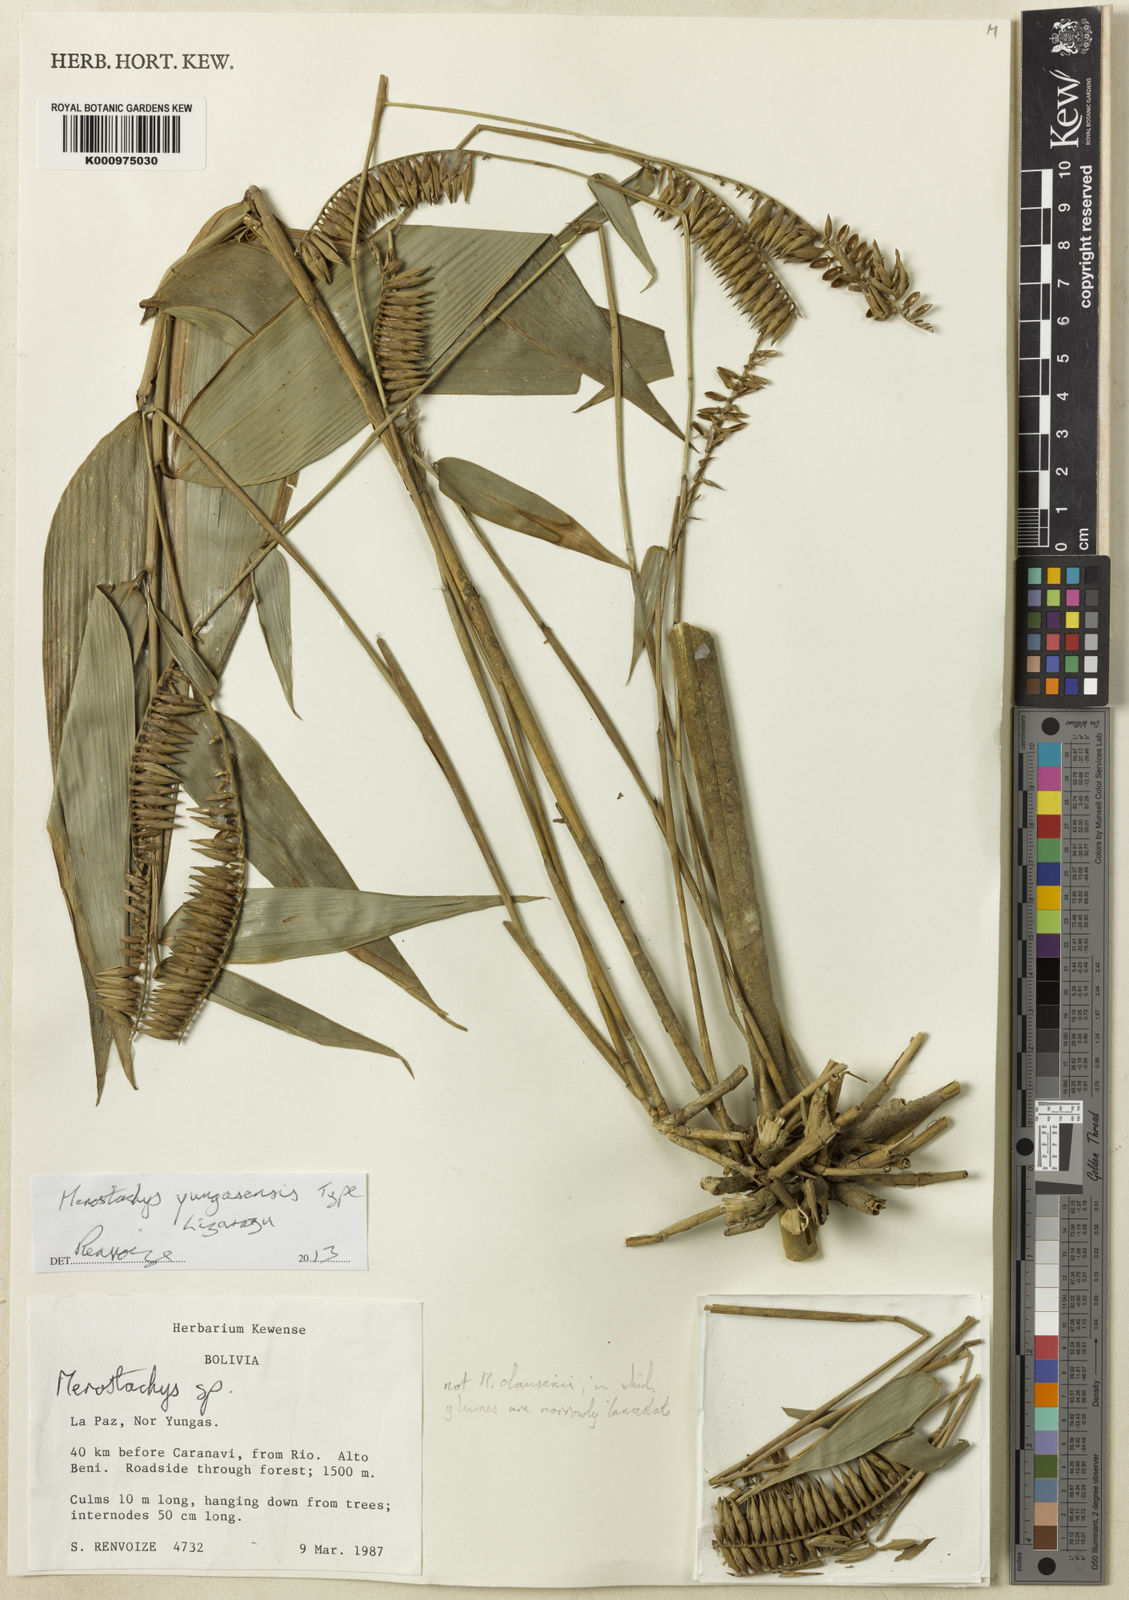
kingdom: Plantae
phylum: Tracheophyta
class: Liliopsida
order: Poales
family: Poaceae
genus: Merostachys
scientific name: Merostachys yungasensis
